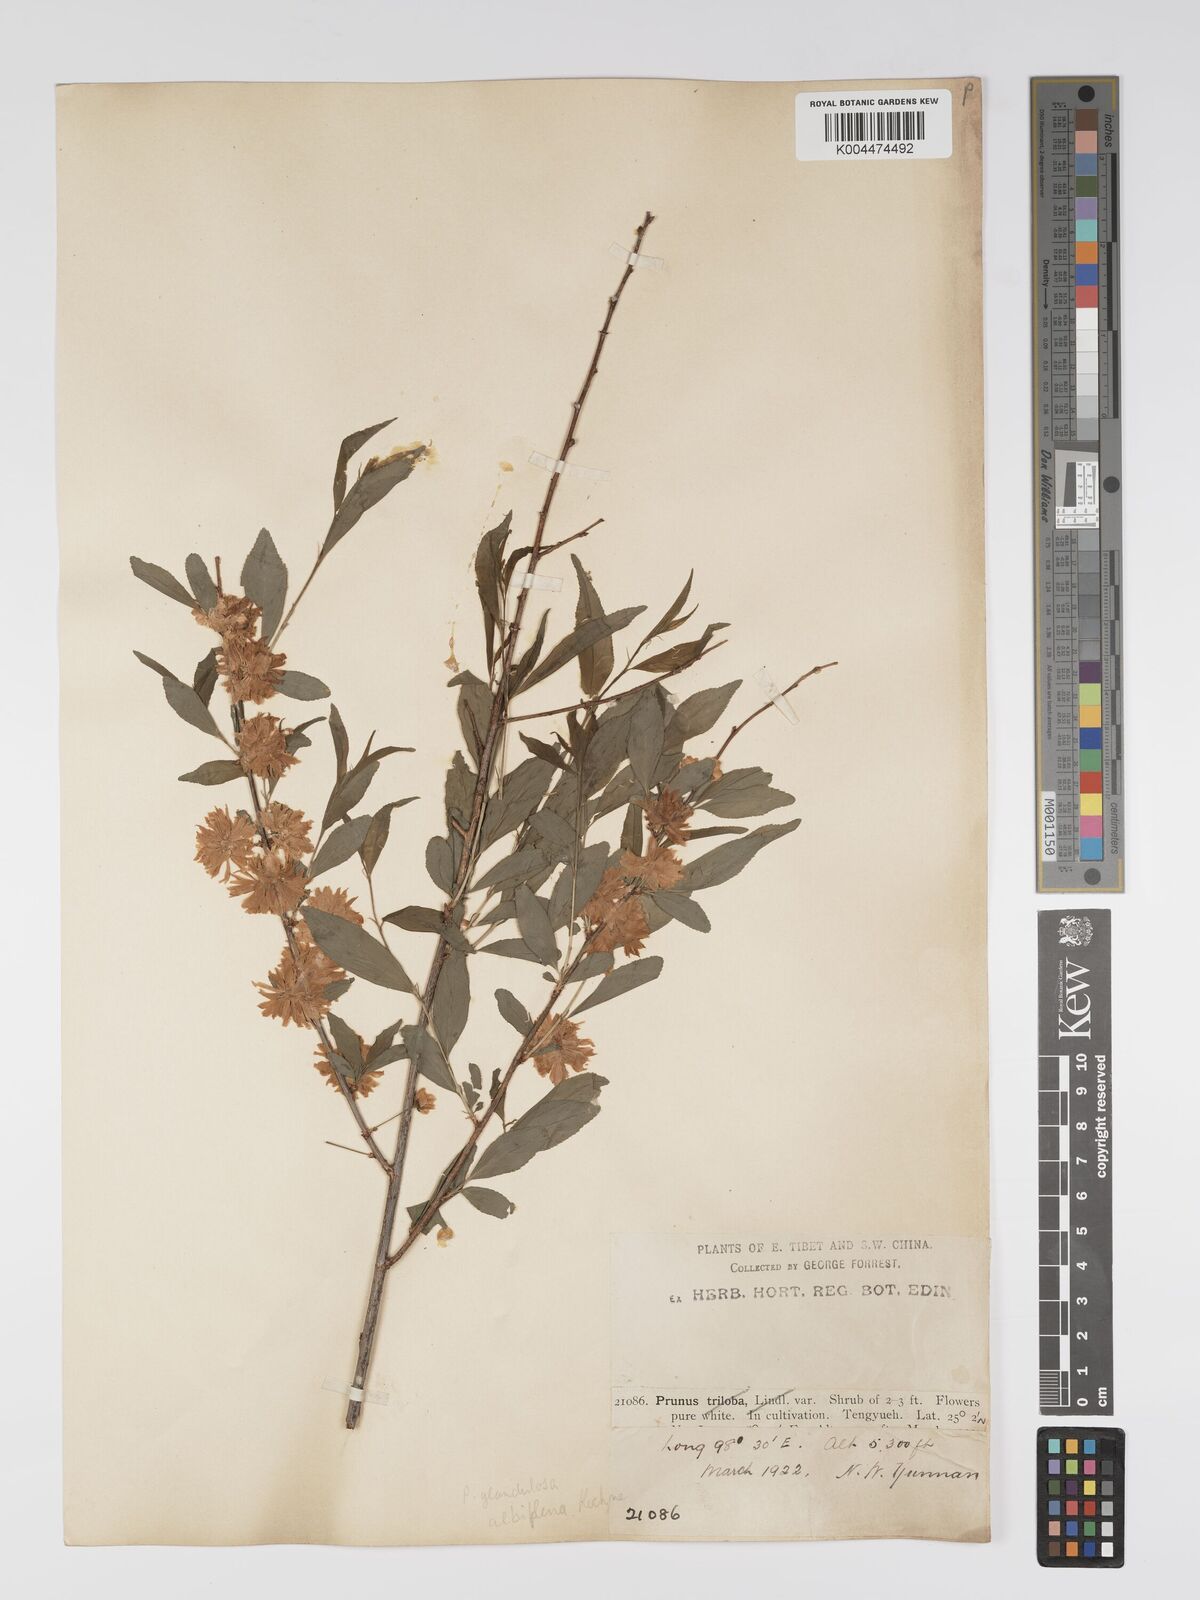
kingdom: Plantae
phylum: Tracheophyta
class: Magnoliopsida
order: Rosales
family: Rosaceae
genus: Prunus
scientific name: Prunus
